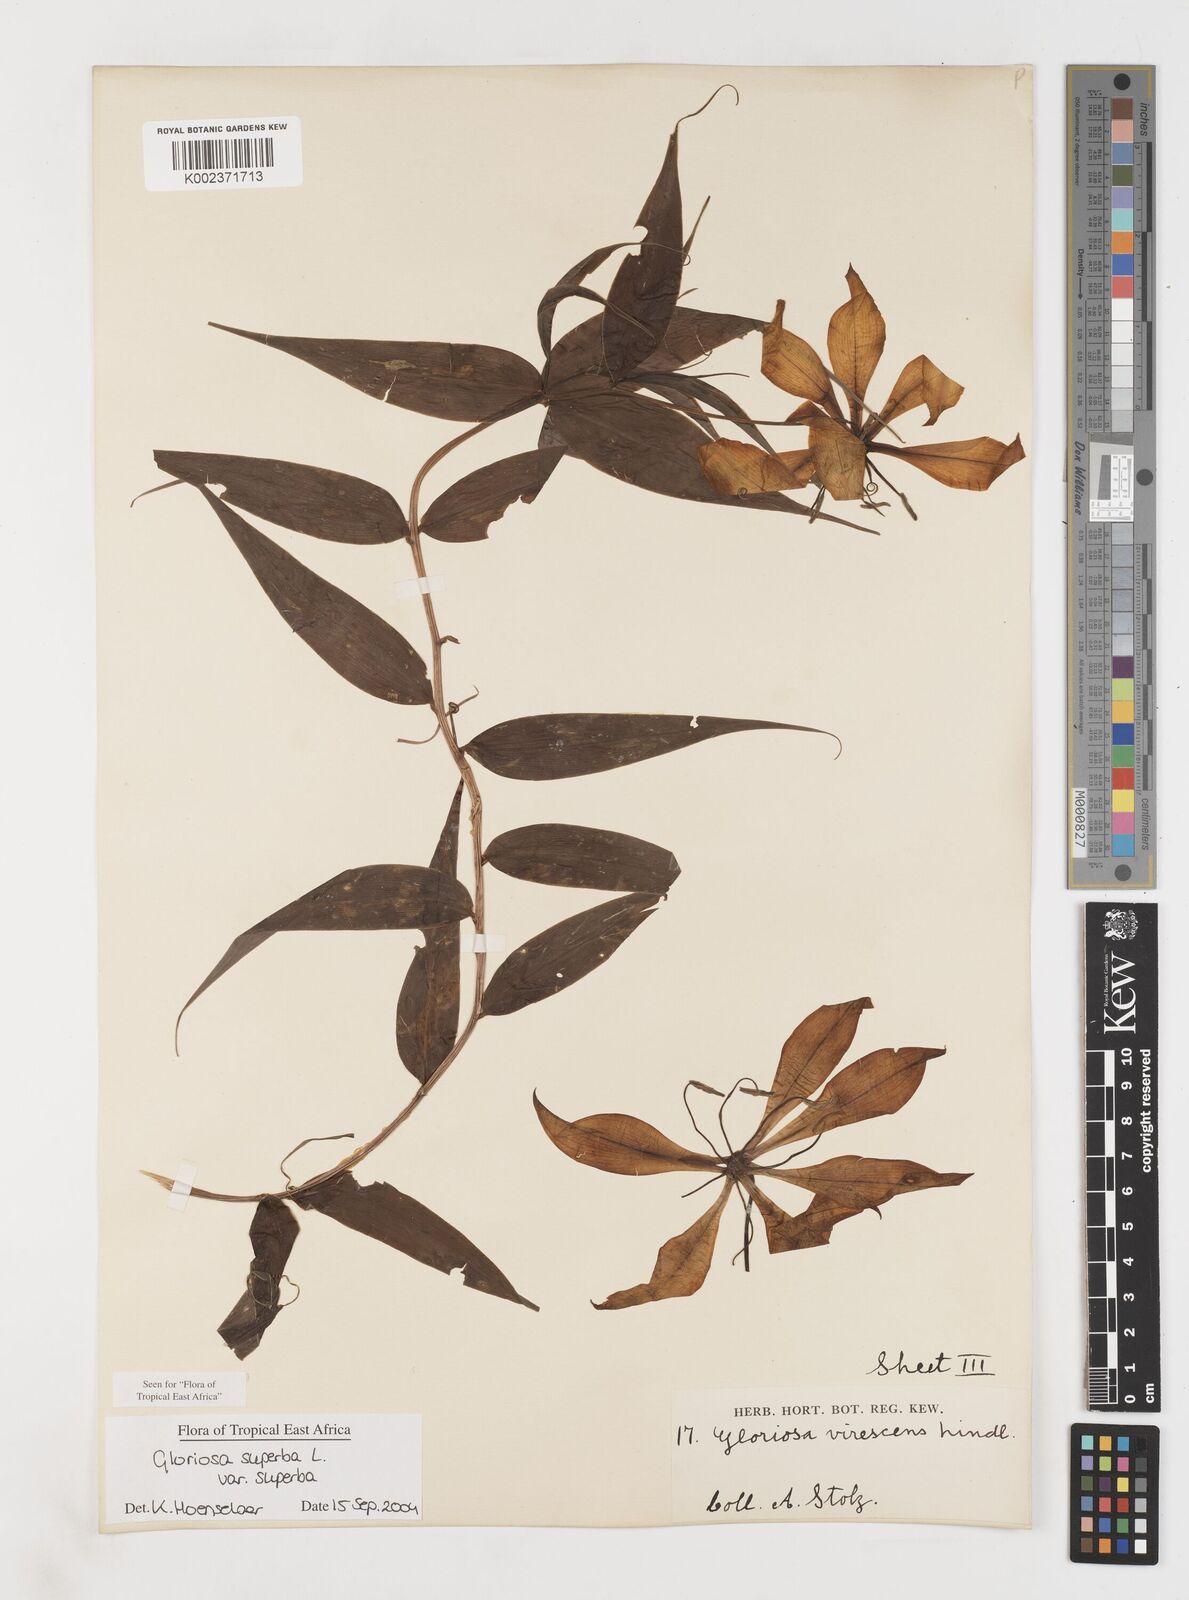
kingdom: Plantae
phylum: Tracheophyta
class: Liliopsida
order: Liliales
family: Colchicaceae
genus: Gloriosa
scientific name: Gloriosa simplex
